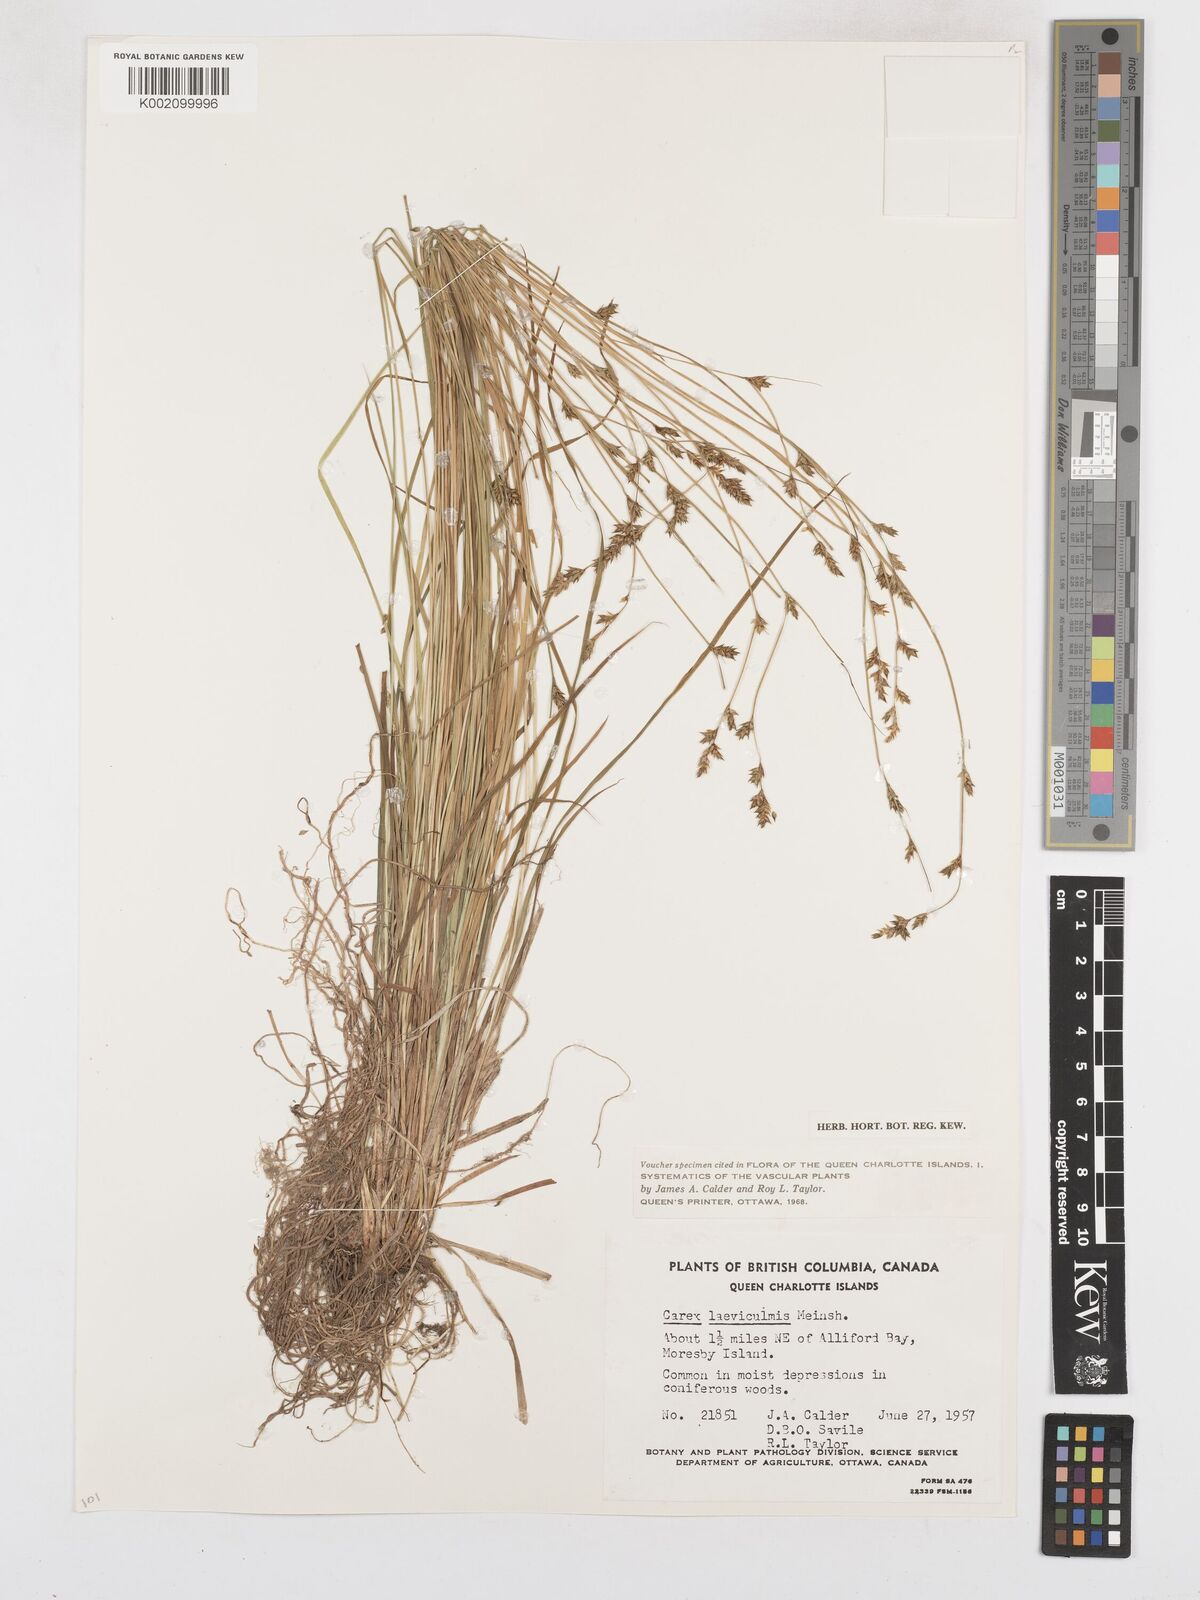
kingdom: Plantae
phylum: Tracheophyta
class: Liliopsida
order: Poales
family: Cyperaceae
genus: Carex
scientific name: Carex laeviculmis
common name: Smooth sedge
